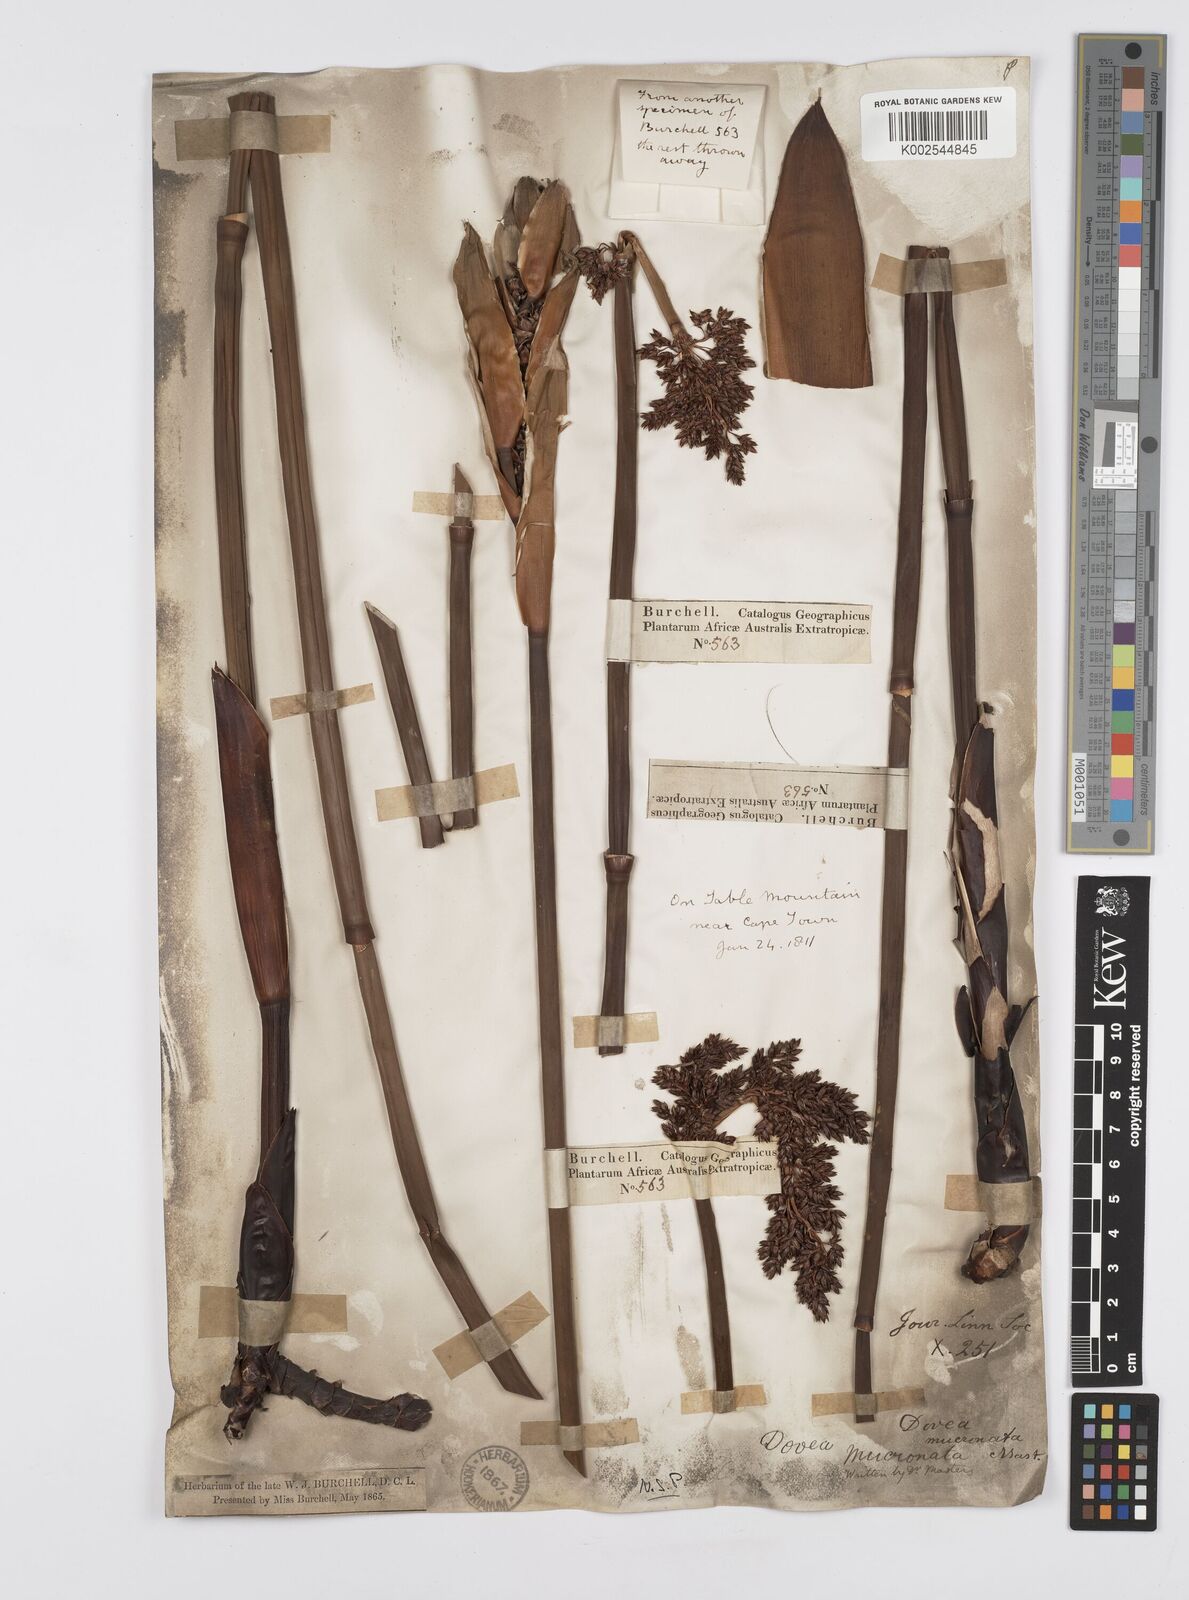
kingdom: Plantae
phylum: Tracheophyta
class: Liliopsida
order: Poales
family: Restionaceae
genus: Elegia
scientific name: Elegia mucronata
